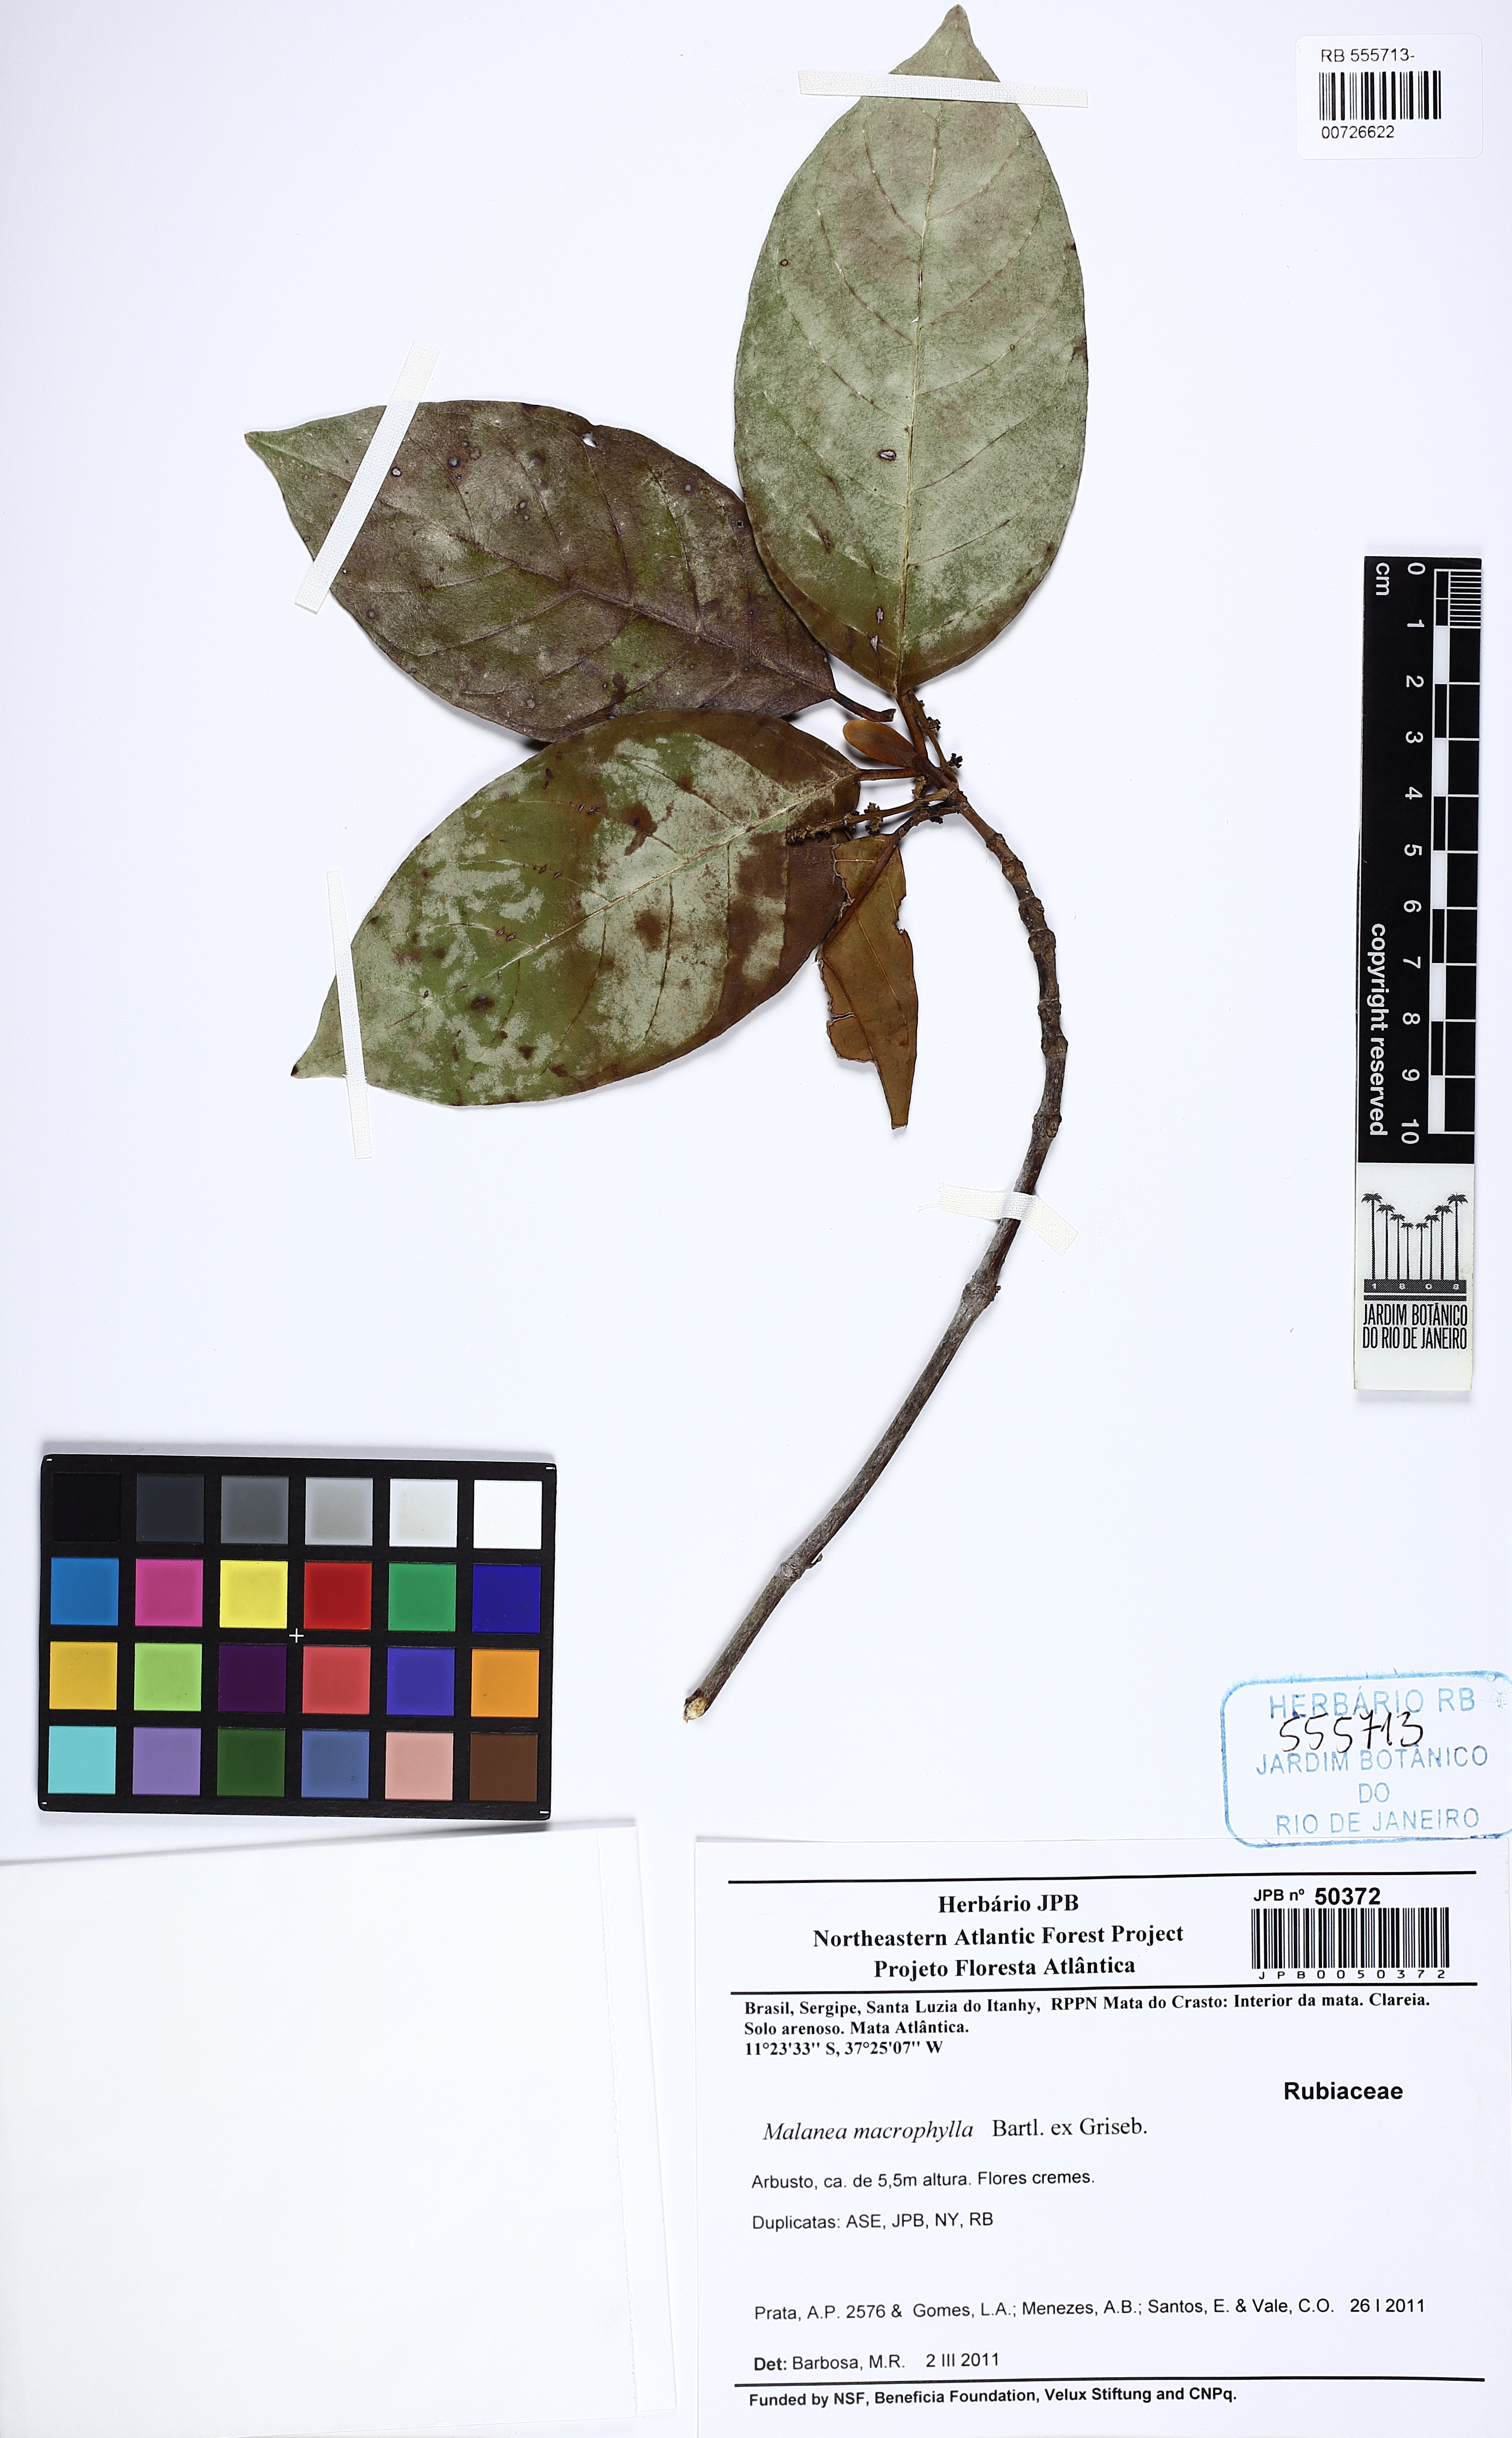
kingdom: Plantae
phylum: Tracheophyta
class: Magnoliopsida
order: Gentianales
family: Rubiaceae
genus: Malanea
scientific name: Malanea glabra
